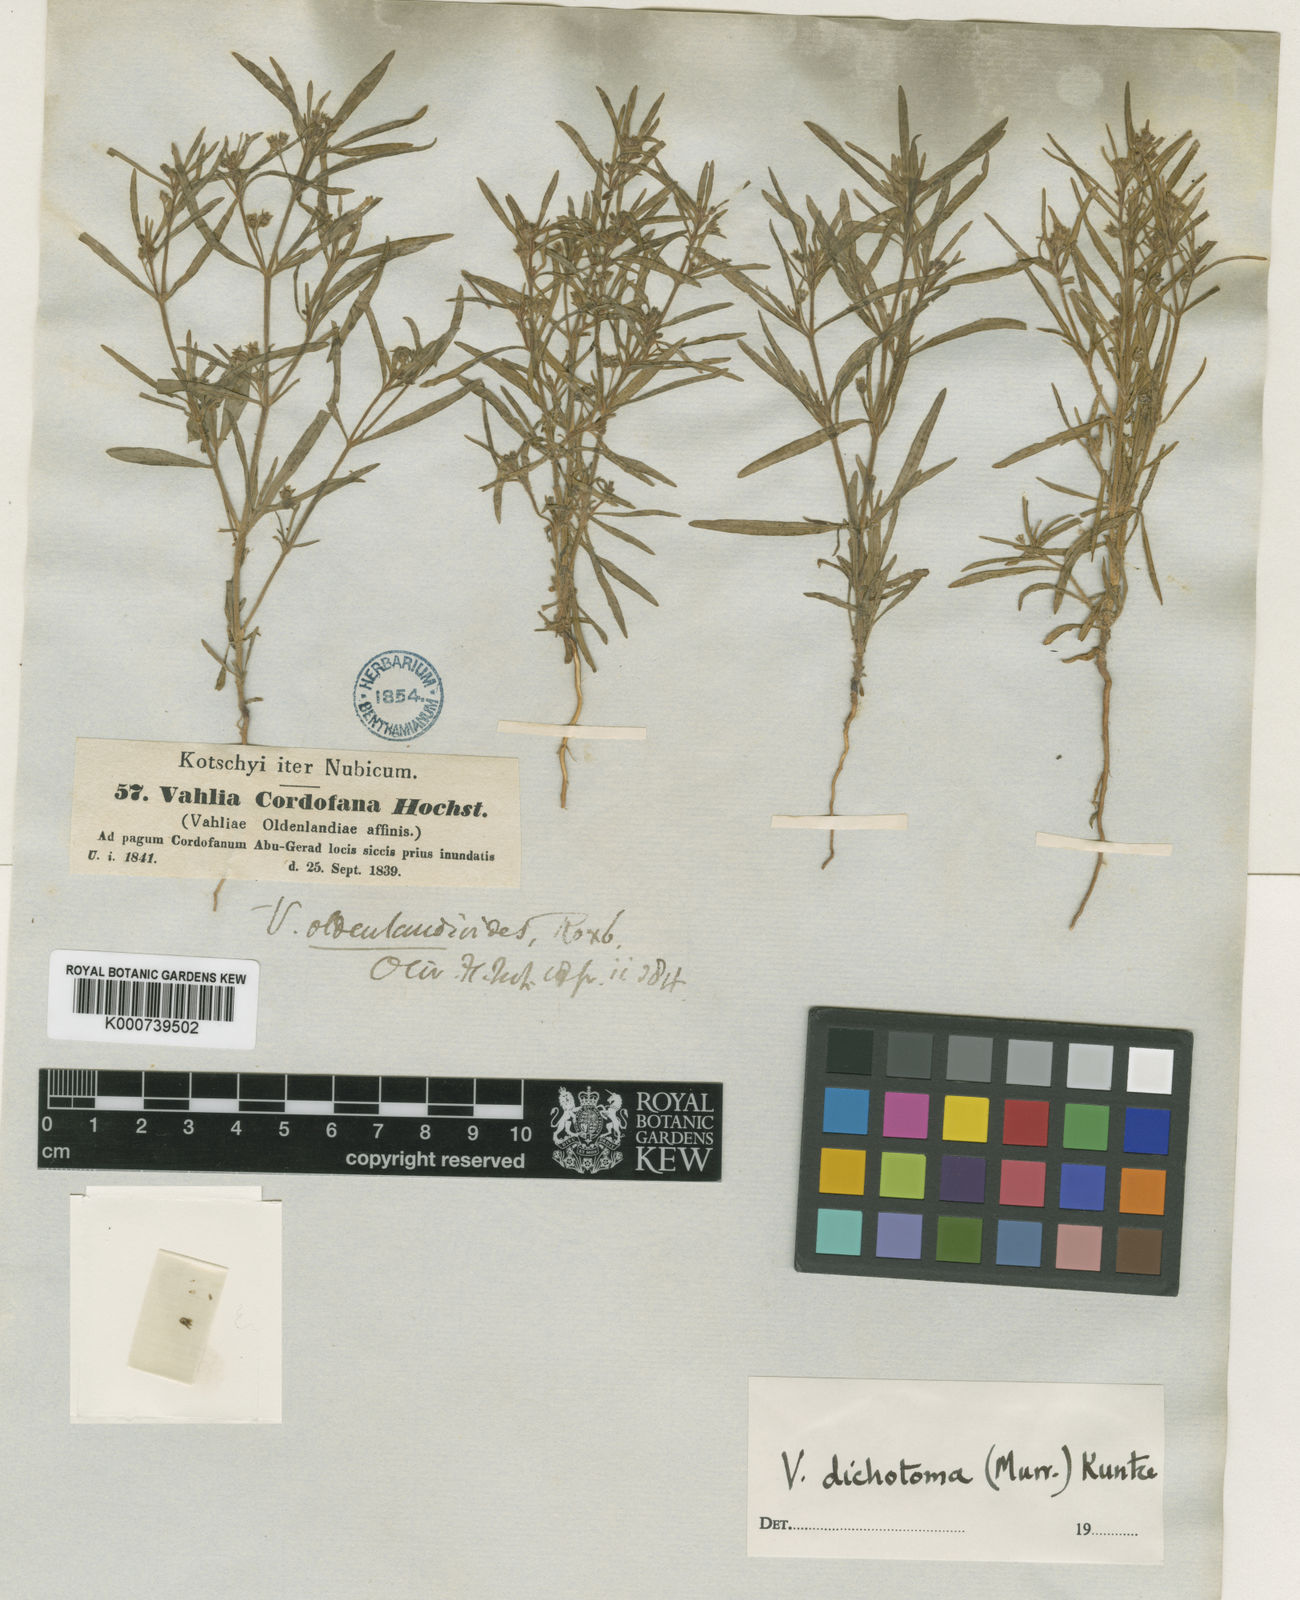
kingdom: Plantae
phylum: Tracheophyta
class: Magnoliopsida
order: Vahliales
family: Vahliaceae
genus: Vahlia
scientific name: Vahlia dichotoma
